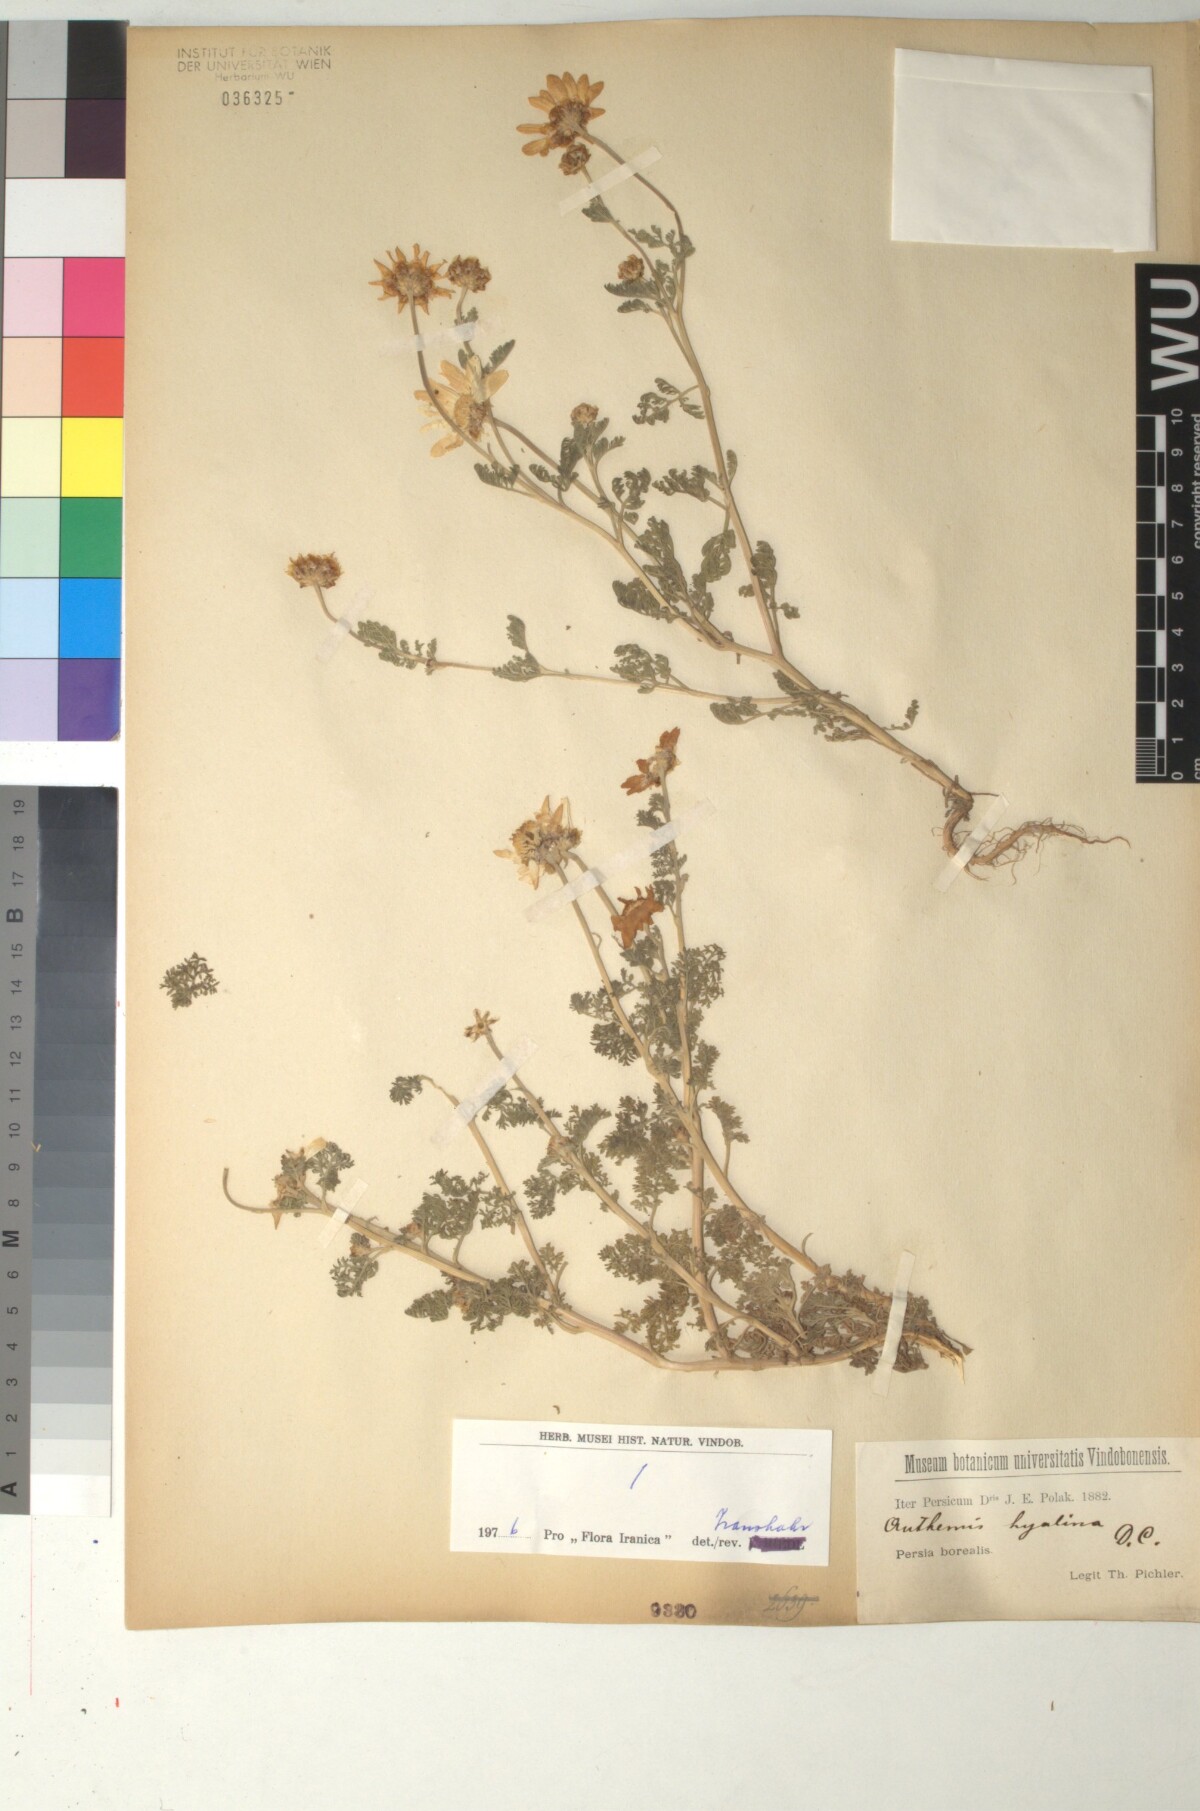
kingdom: Plantae
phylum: Tracheophyta
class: Magnoliopsida
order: Asterales
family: Asteraceae
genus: Anthemis
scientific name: Anthemis hyalina
